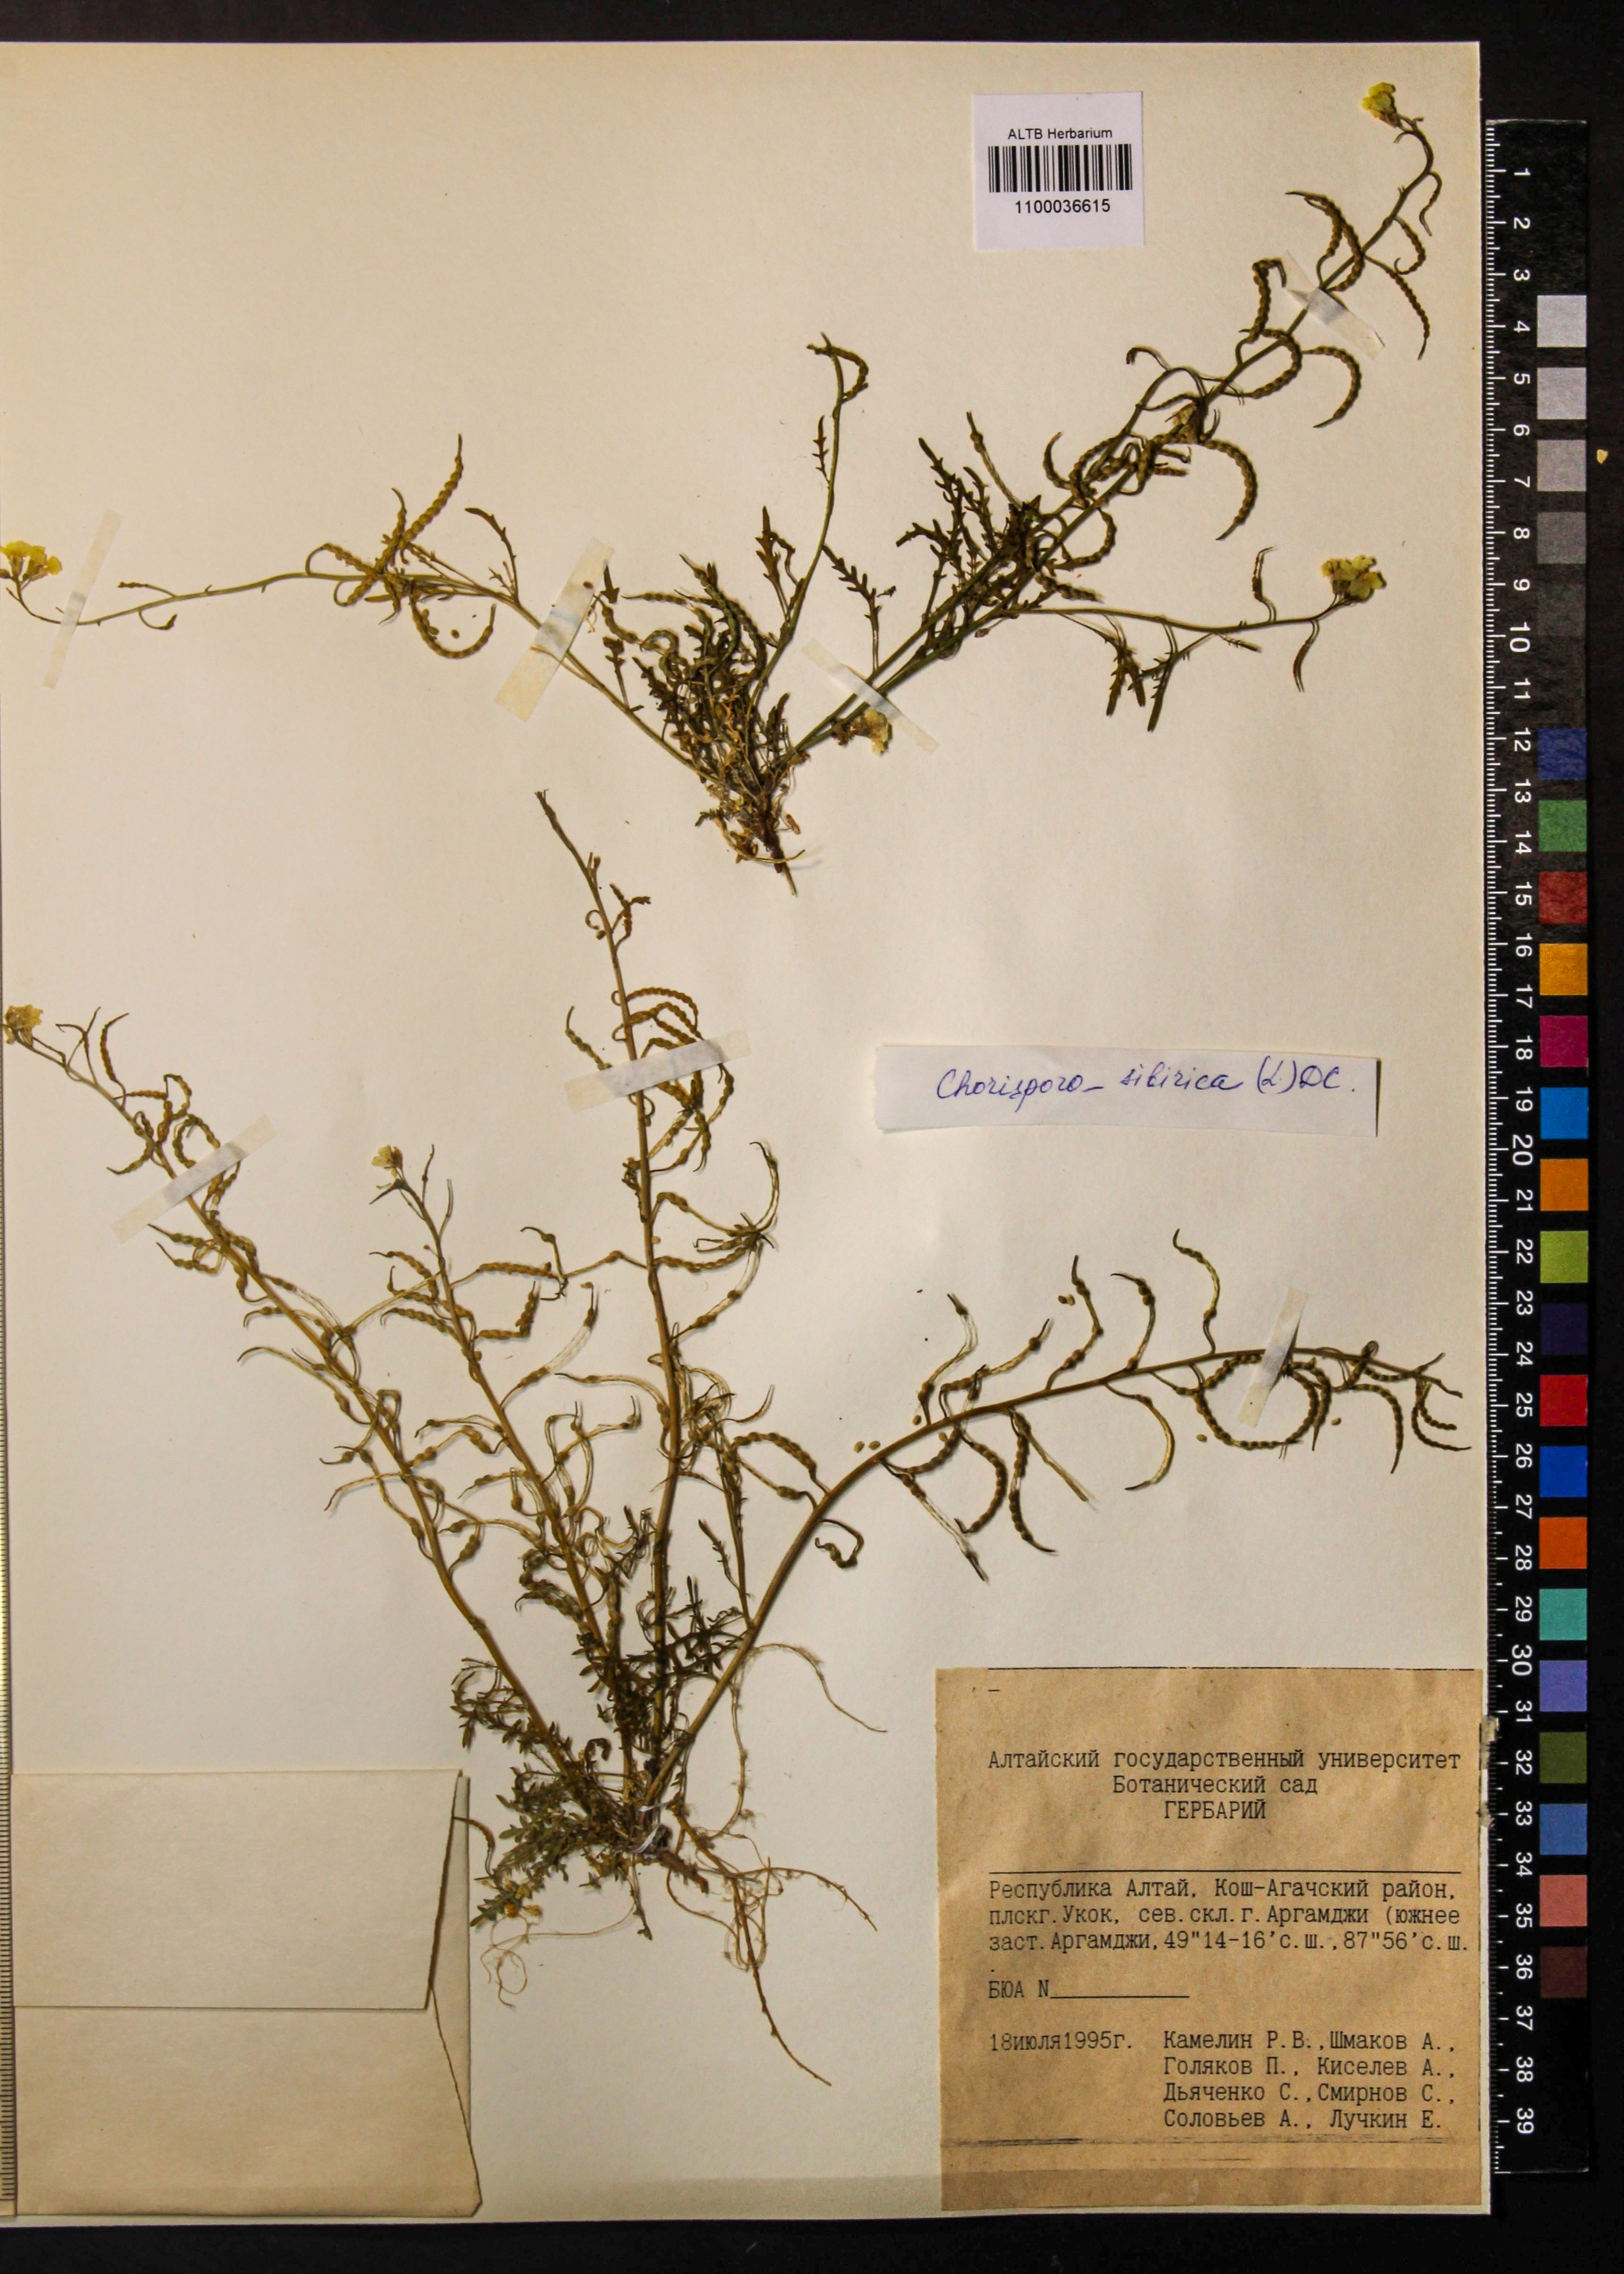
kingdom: Plantae
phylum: Tracheophyta
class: Magnoliopsida
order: Brassicales
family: Brassicaceae
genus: Chorispora
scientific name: Chorispora sibirica
